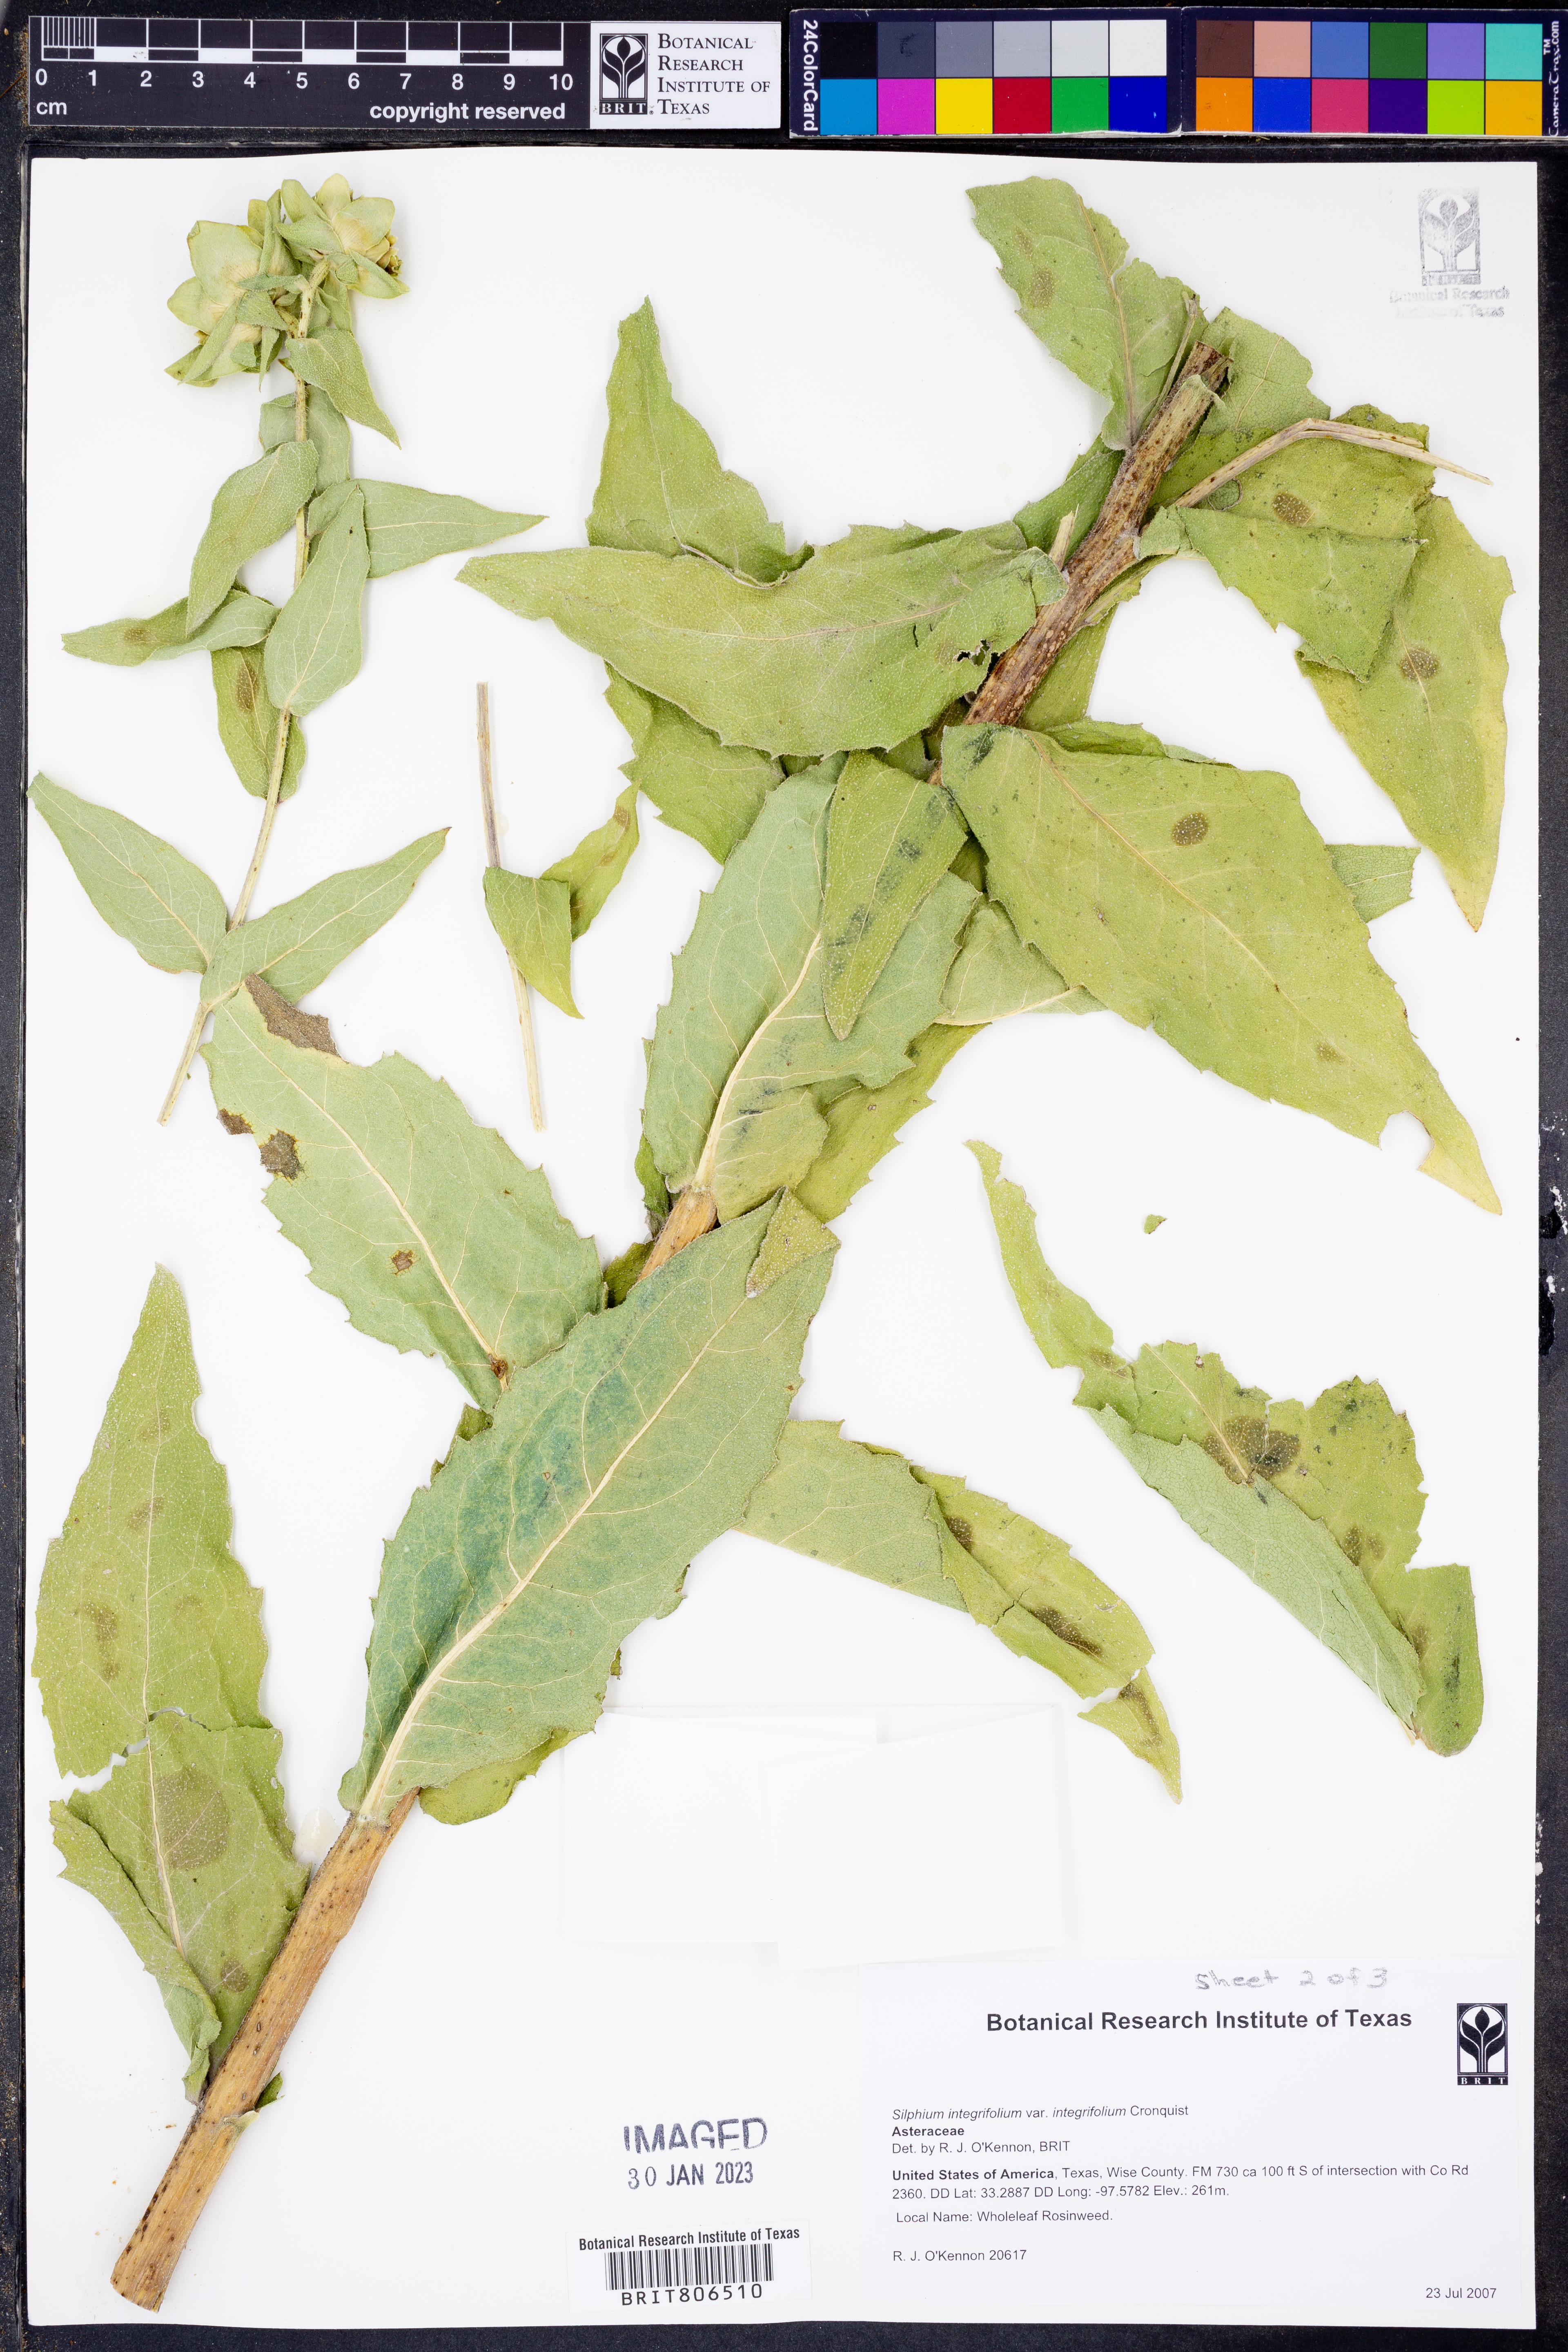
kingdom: Plantae
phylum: Tracheophyta
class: Magnoliopsida
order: Asterales
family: Asteraceae
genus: Silphium
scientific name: Silphium integrifolium
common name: Whole-leaf rosinweed
